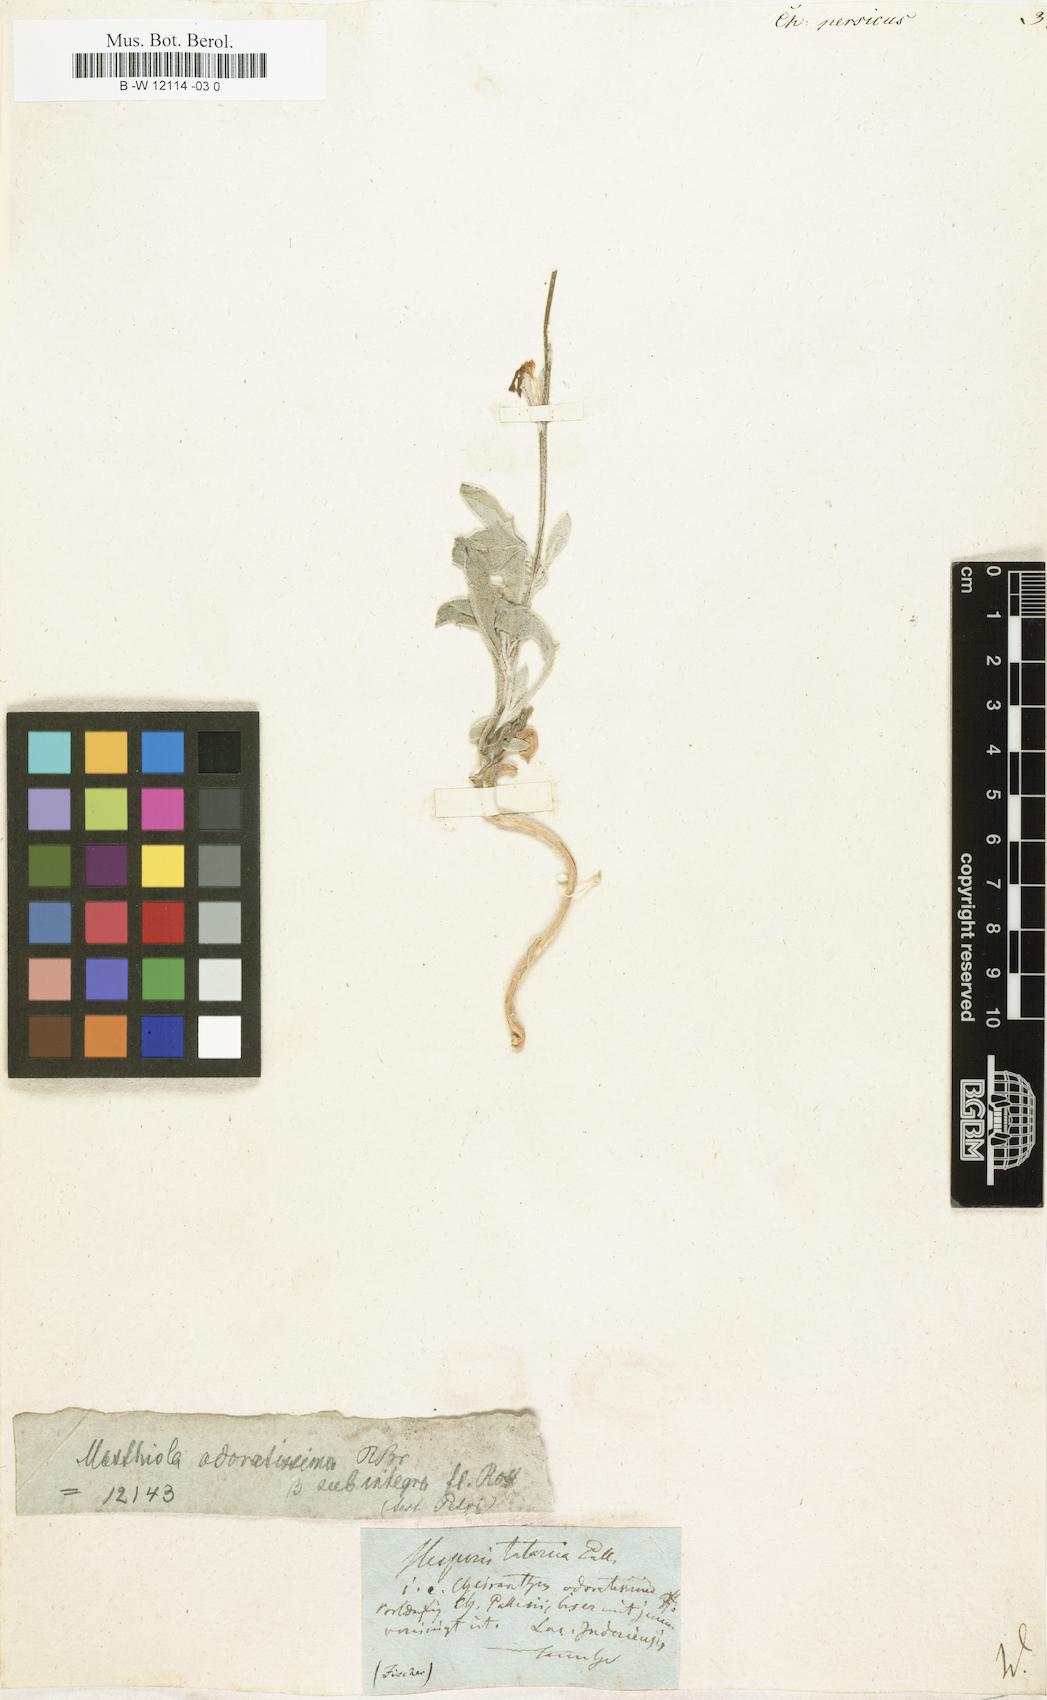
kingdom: Plantae
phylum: Tracheophyta
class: Magnoliopsida
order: Brassicales
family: Brassicaceae
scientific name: Brassicaceae
